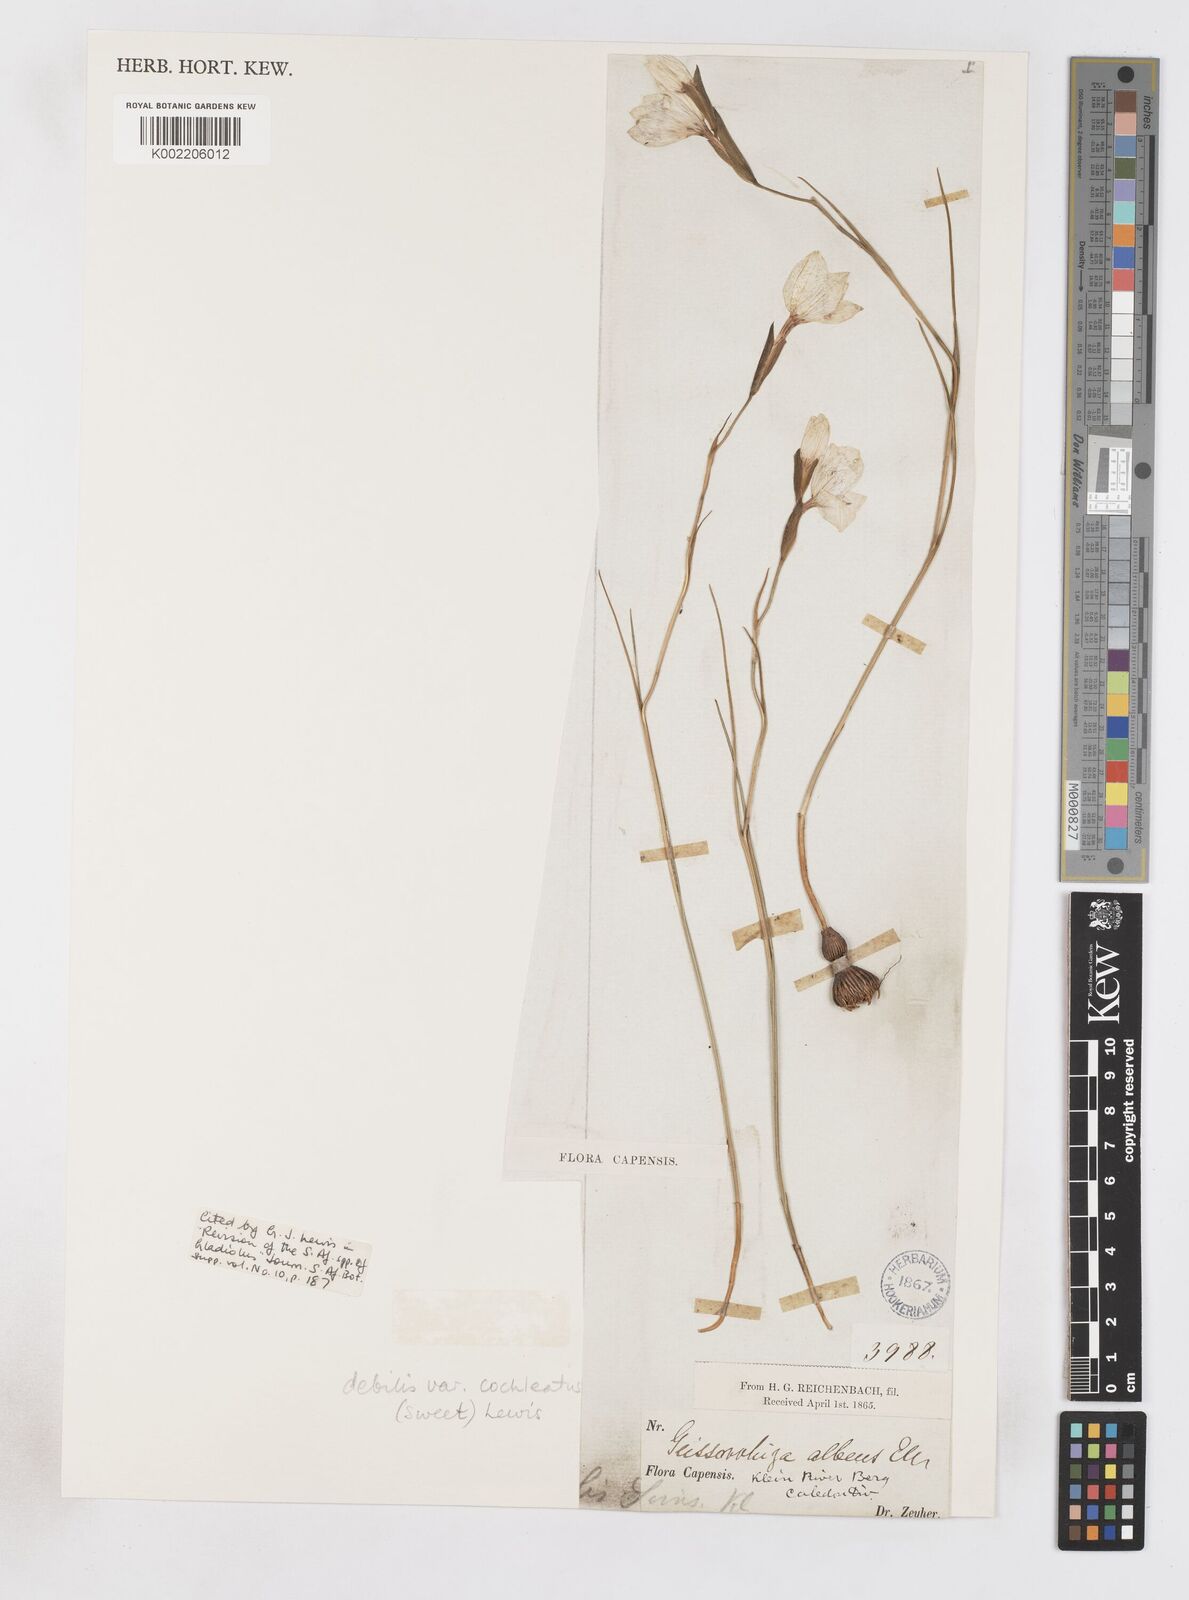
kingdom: Plantae
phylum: Tracheophyta
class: Liliopsida
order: Asparagales
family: Iridaceae
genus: Gladiolus
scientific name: Gladiolus debilis
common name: Painted-lady
